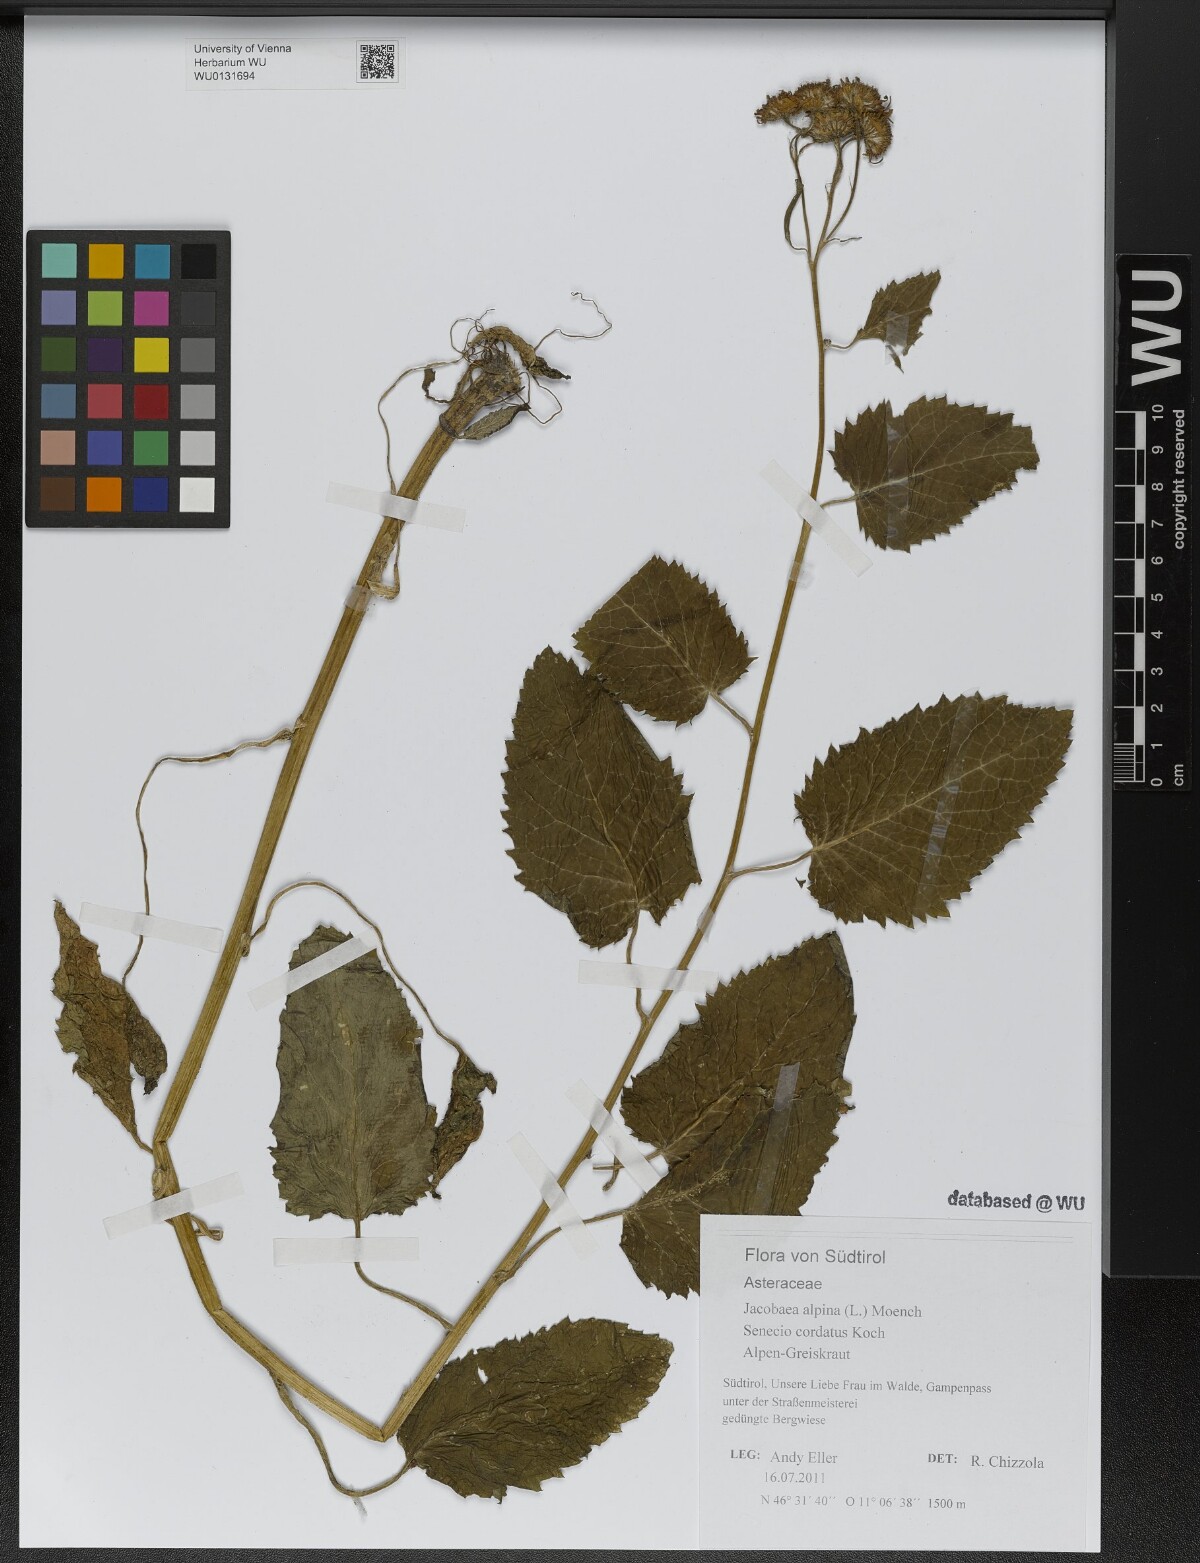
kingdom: Plantae
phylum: Tracheophyta
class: Magnoliopsida
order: Asterales
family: Asteraceae
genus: Jacobaea
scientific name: Jacobaea alpina
